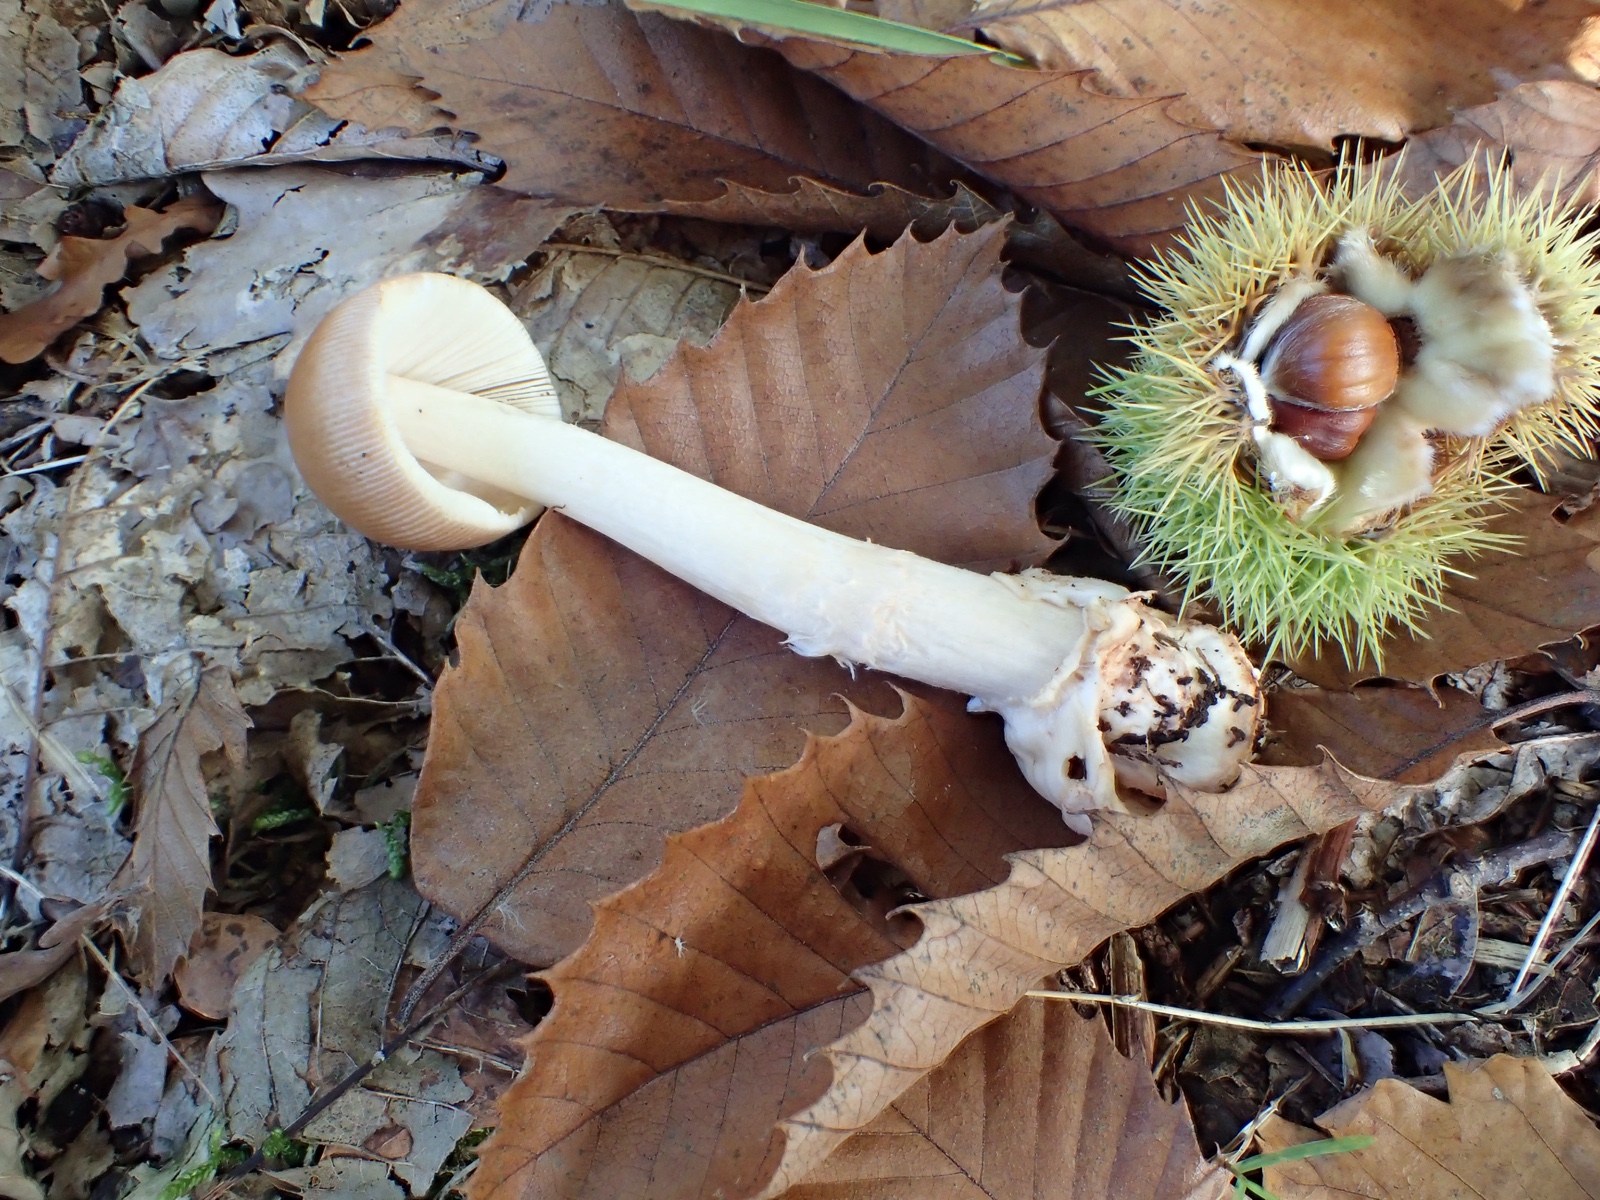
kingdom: Fungi
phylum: Basidiomycota
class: Agaricomycetes
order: Agaricales
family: Amanitaceae
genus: Amanita
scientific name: Amanita fulva
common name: brun kam-fluesvamp
